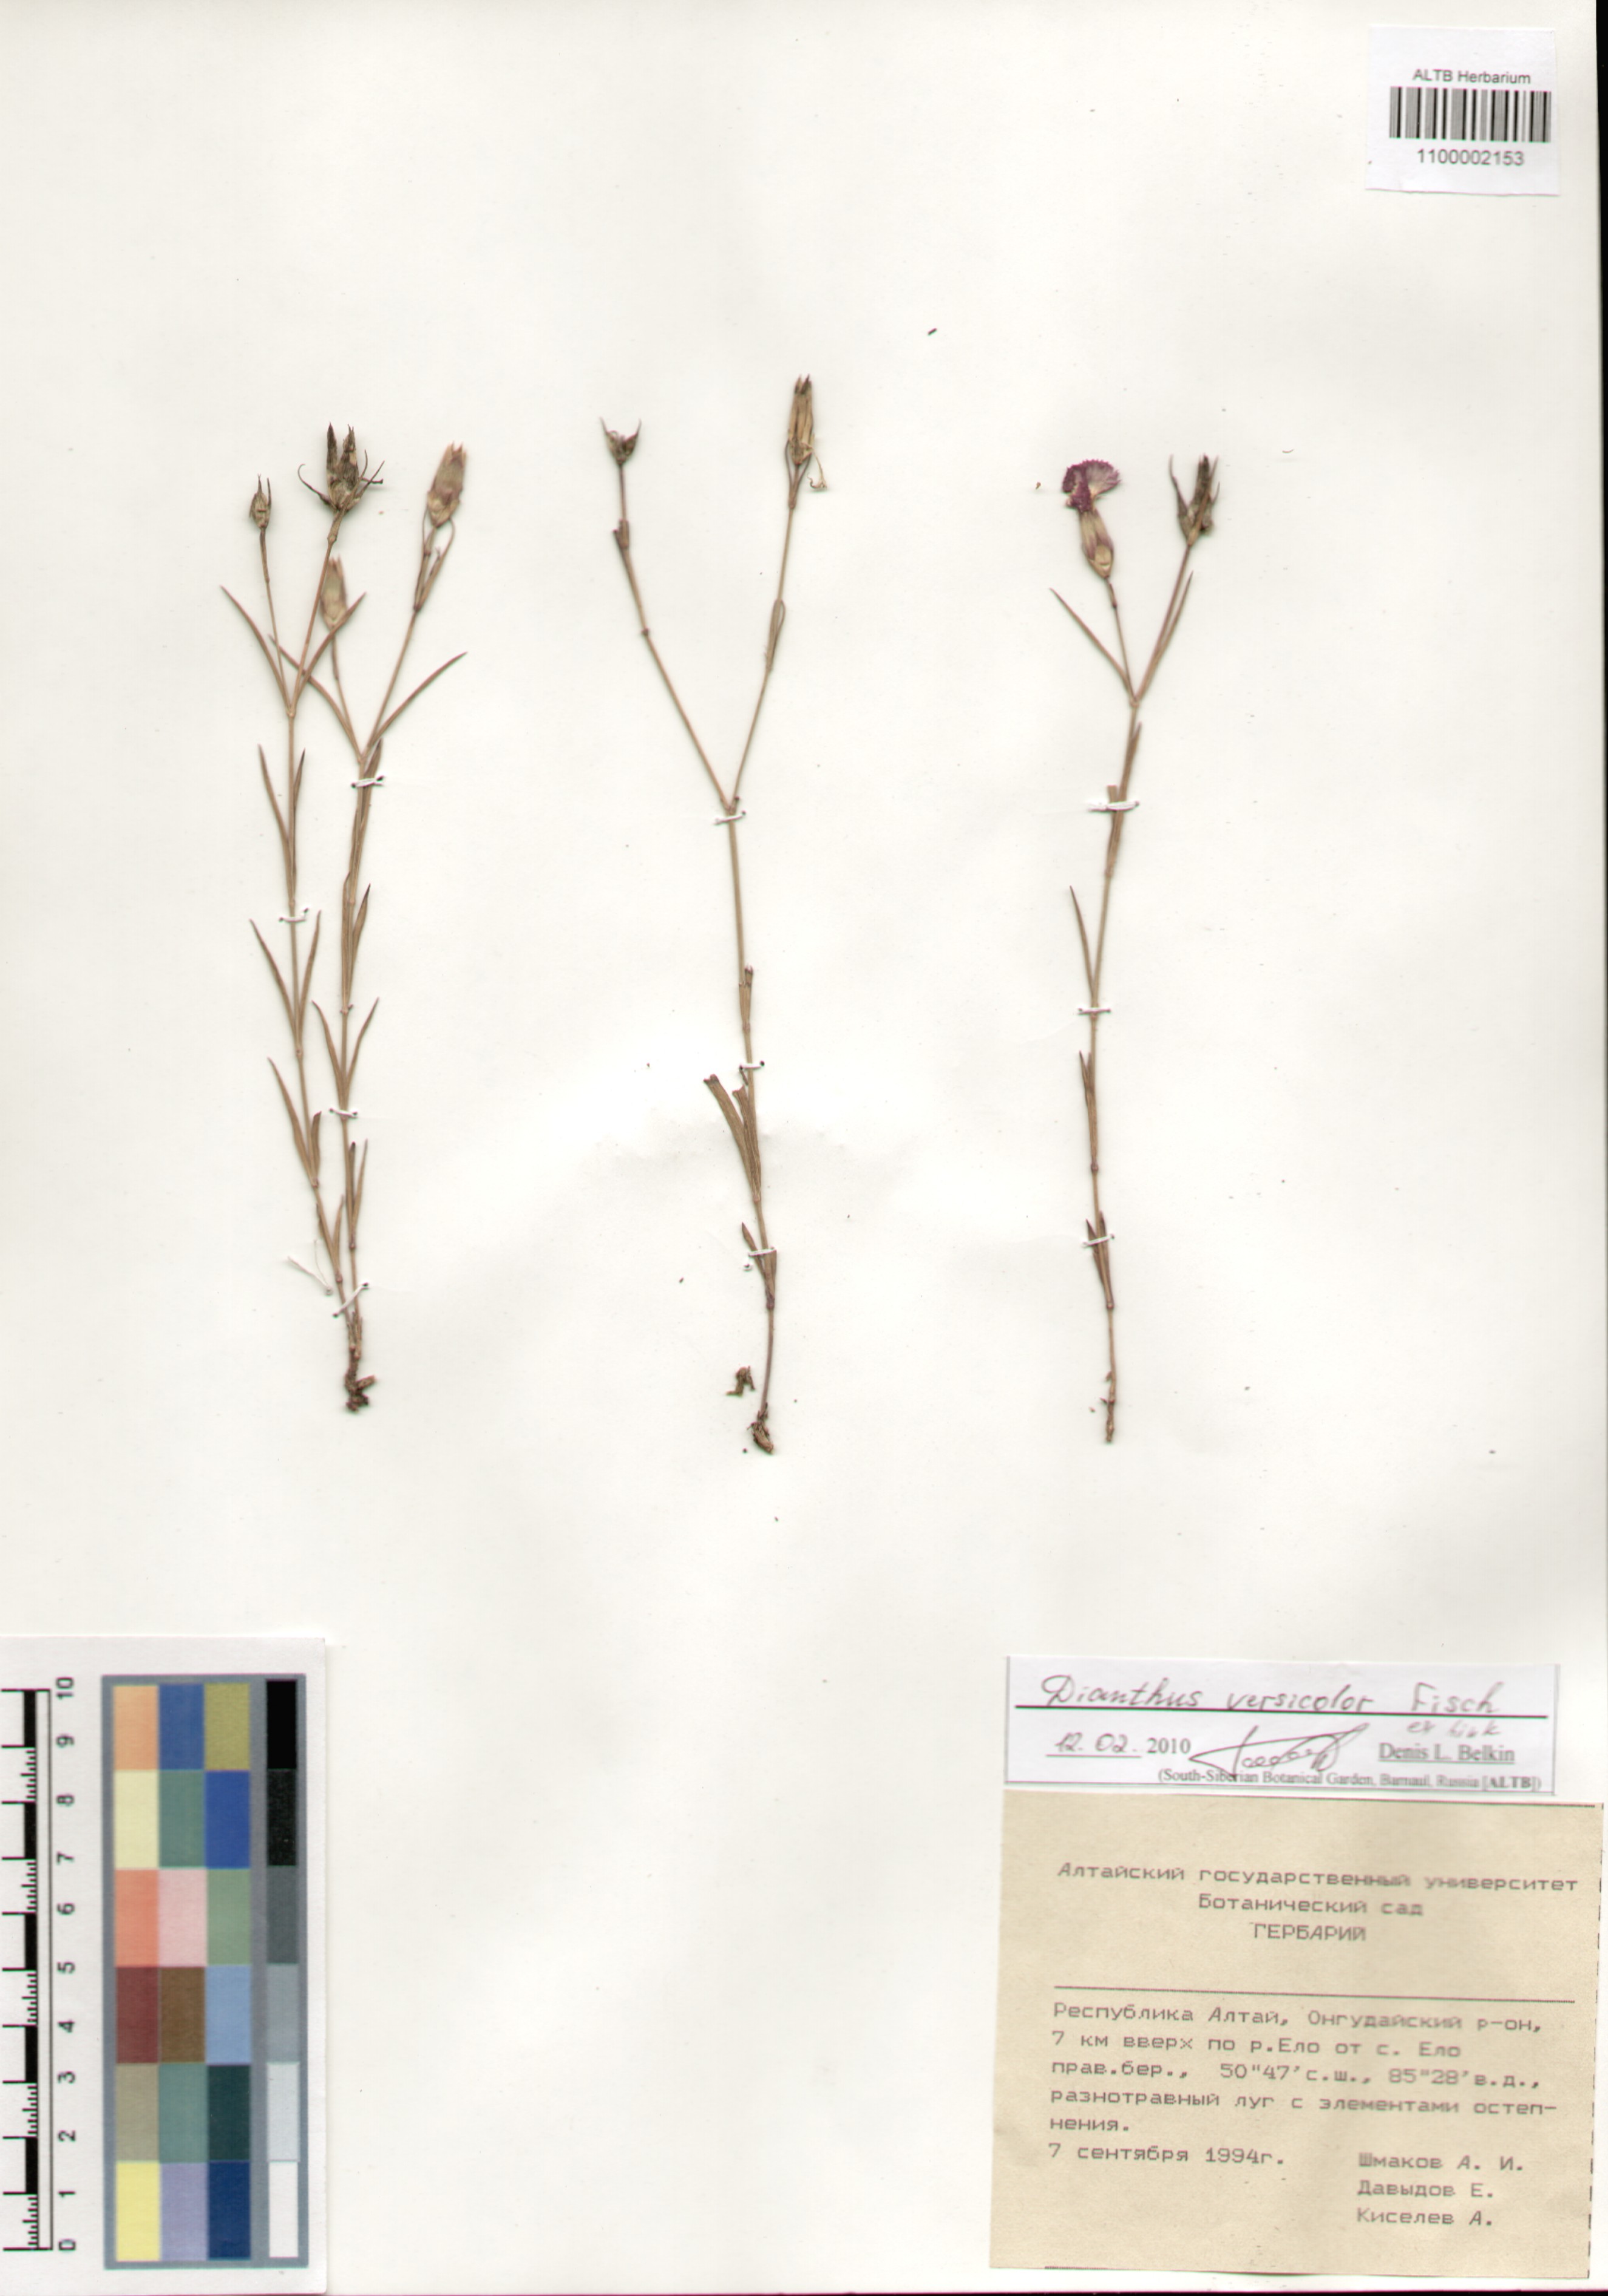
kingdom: Plantae
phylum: Tracheophyta
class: Magnoliopsida
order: Caryophyllales
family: Caryophyllaceae
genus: Dianthus
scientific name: Dianthus chinensis
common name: Rainbow pink
